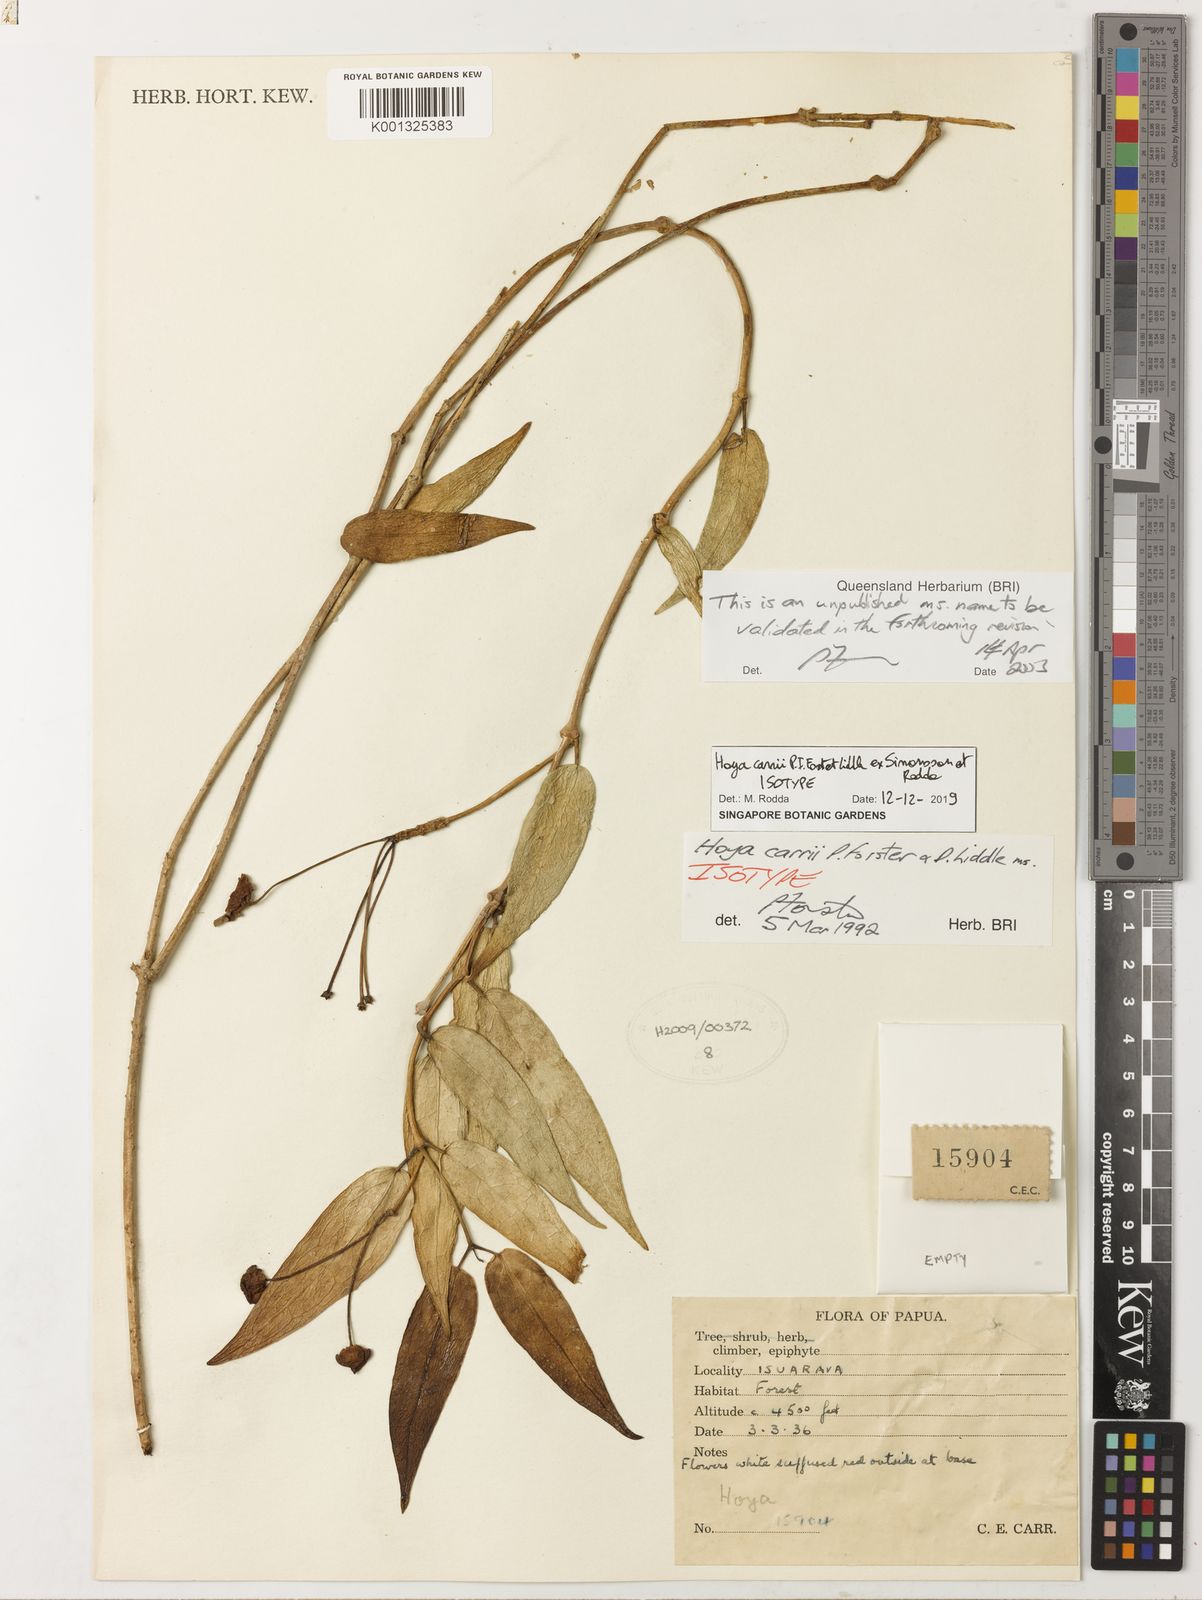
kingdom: Plantae
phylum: Tracheophyta
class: Magnoliopsida
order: Gentianales
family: Apocynaceae
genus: Hoya
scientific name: Hoya carrii
